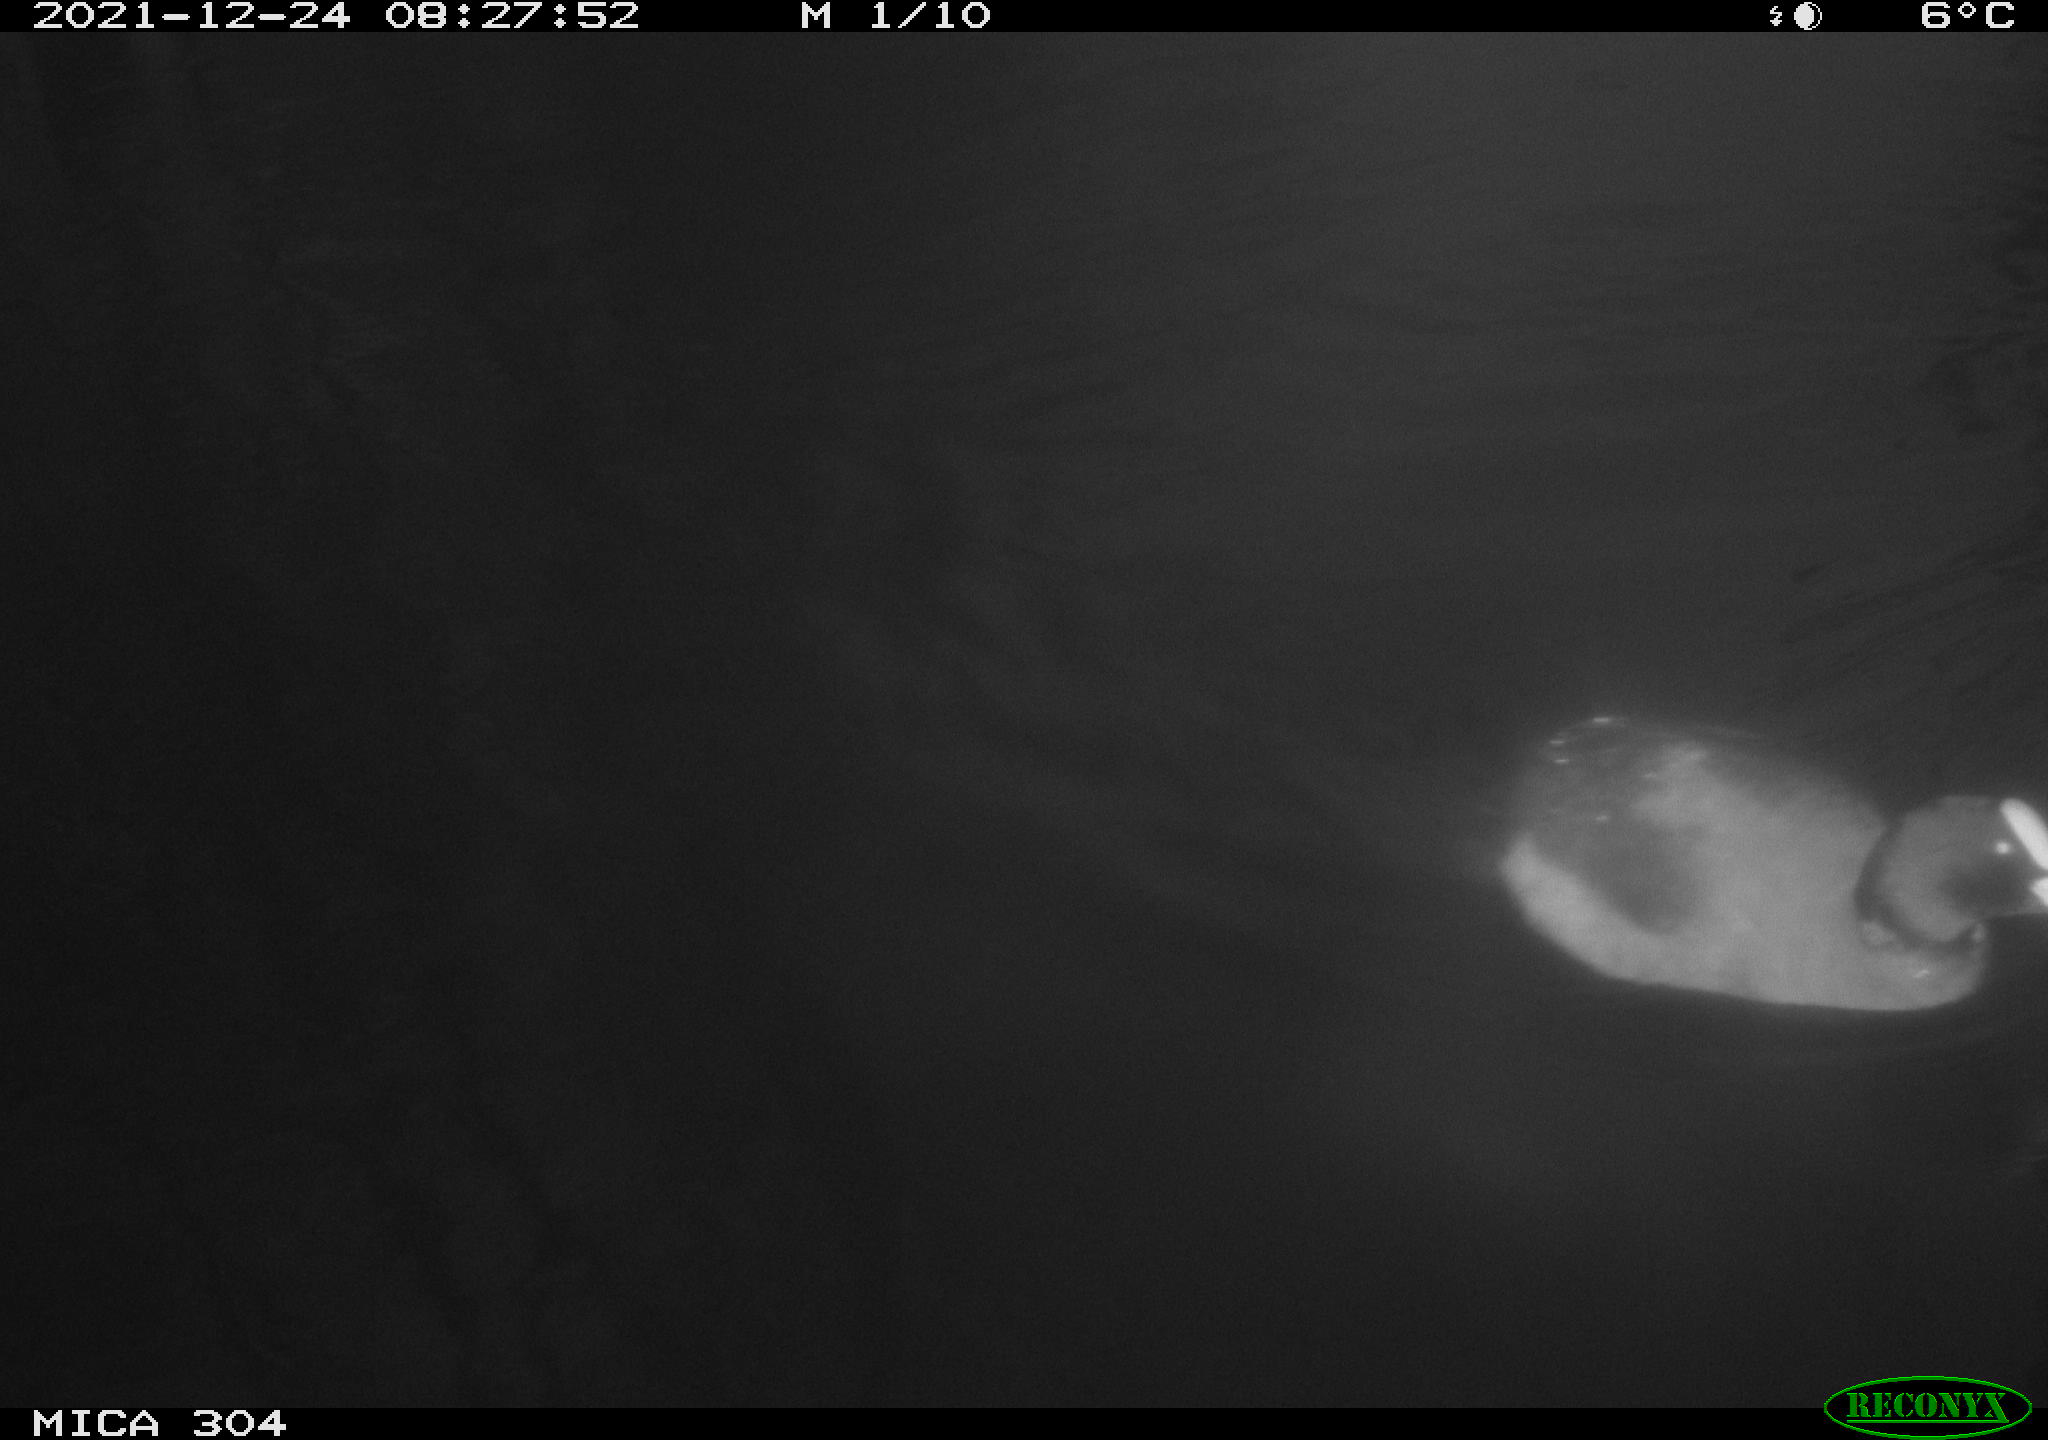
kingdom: Animalia
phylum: Chordata
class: Aves
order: Gruiformes
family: Rallidae
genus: Fulica
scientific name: Fulica atra
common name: Eurasian coot
